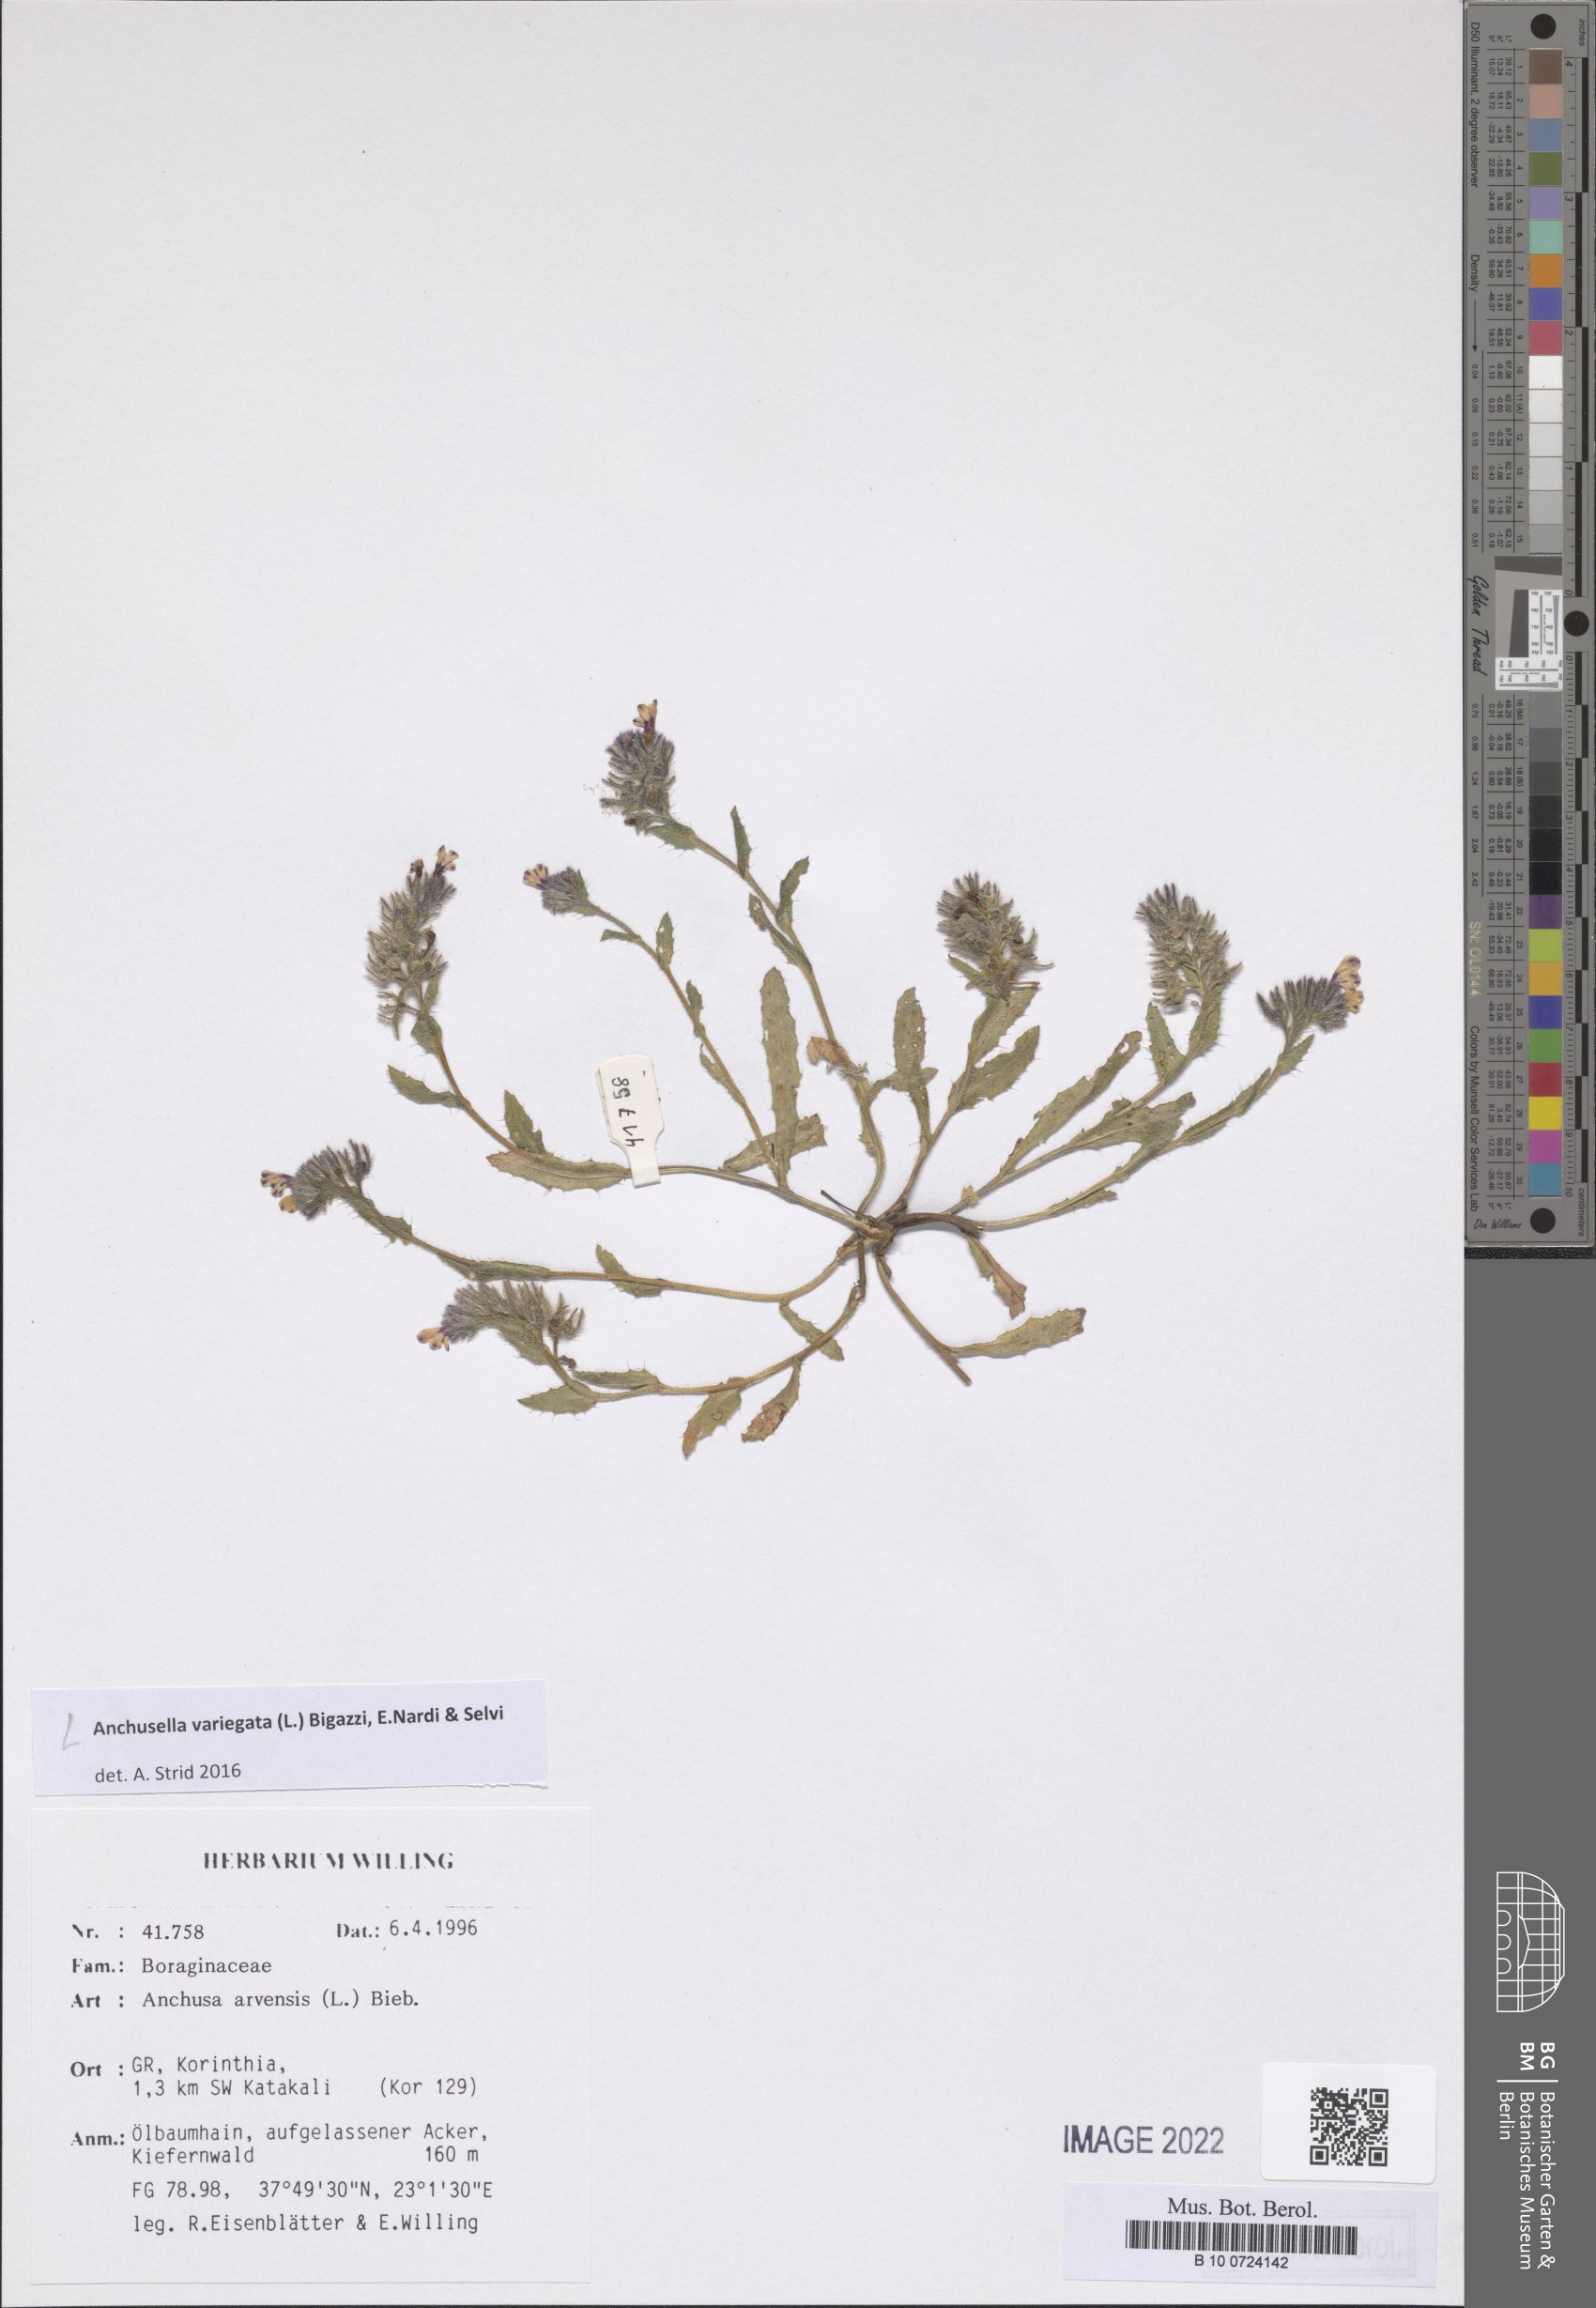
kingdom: Plantae
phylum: Tracheophyta
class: Magnoliopsida
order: Boraginales
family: Boraginaceae
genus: Anchusella
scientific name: Anchusella variegata
